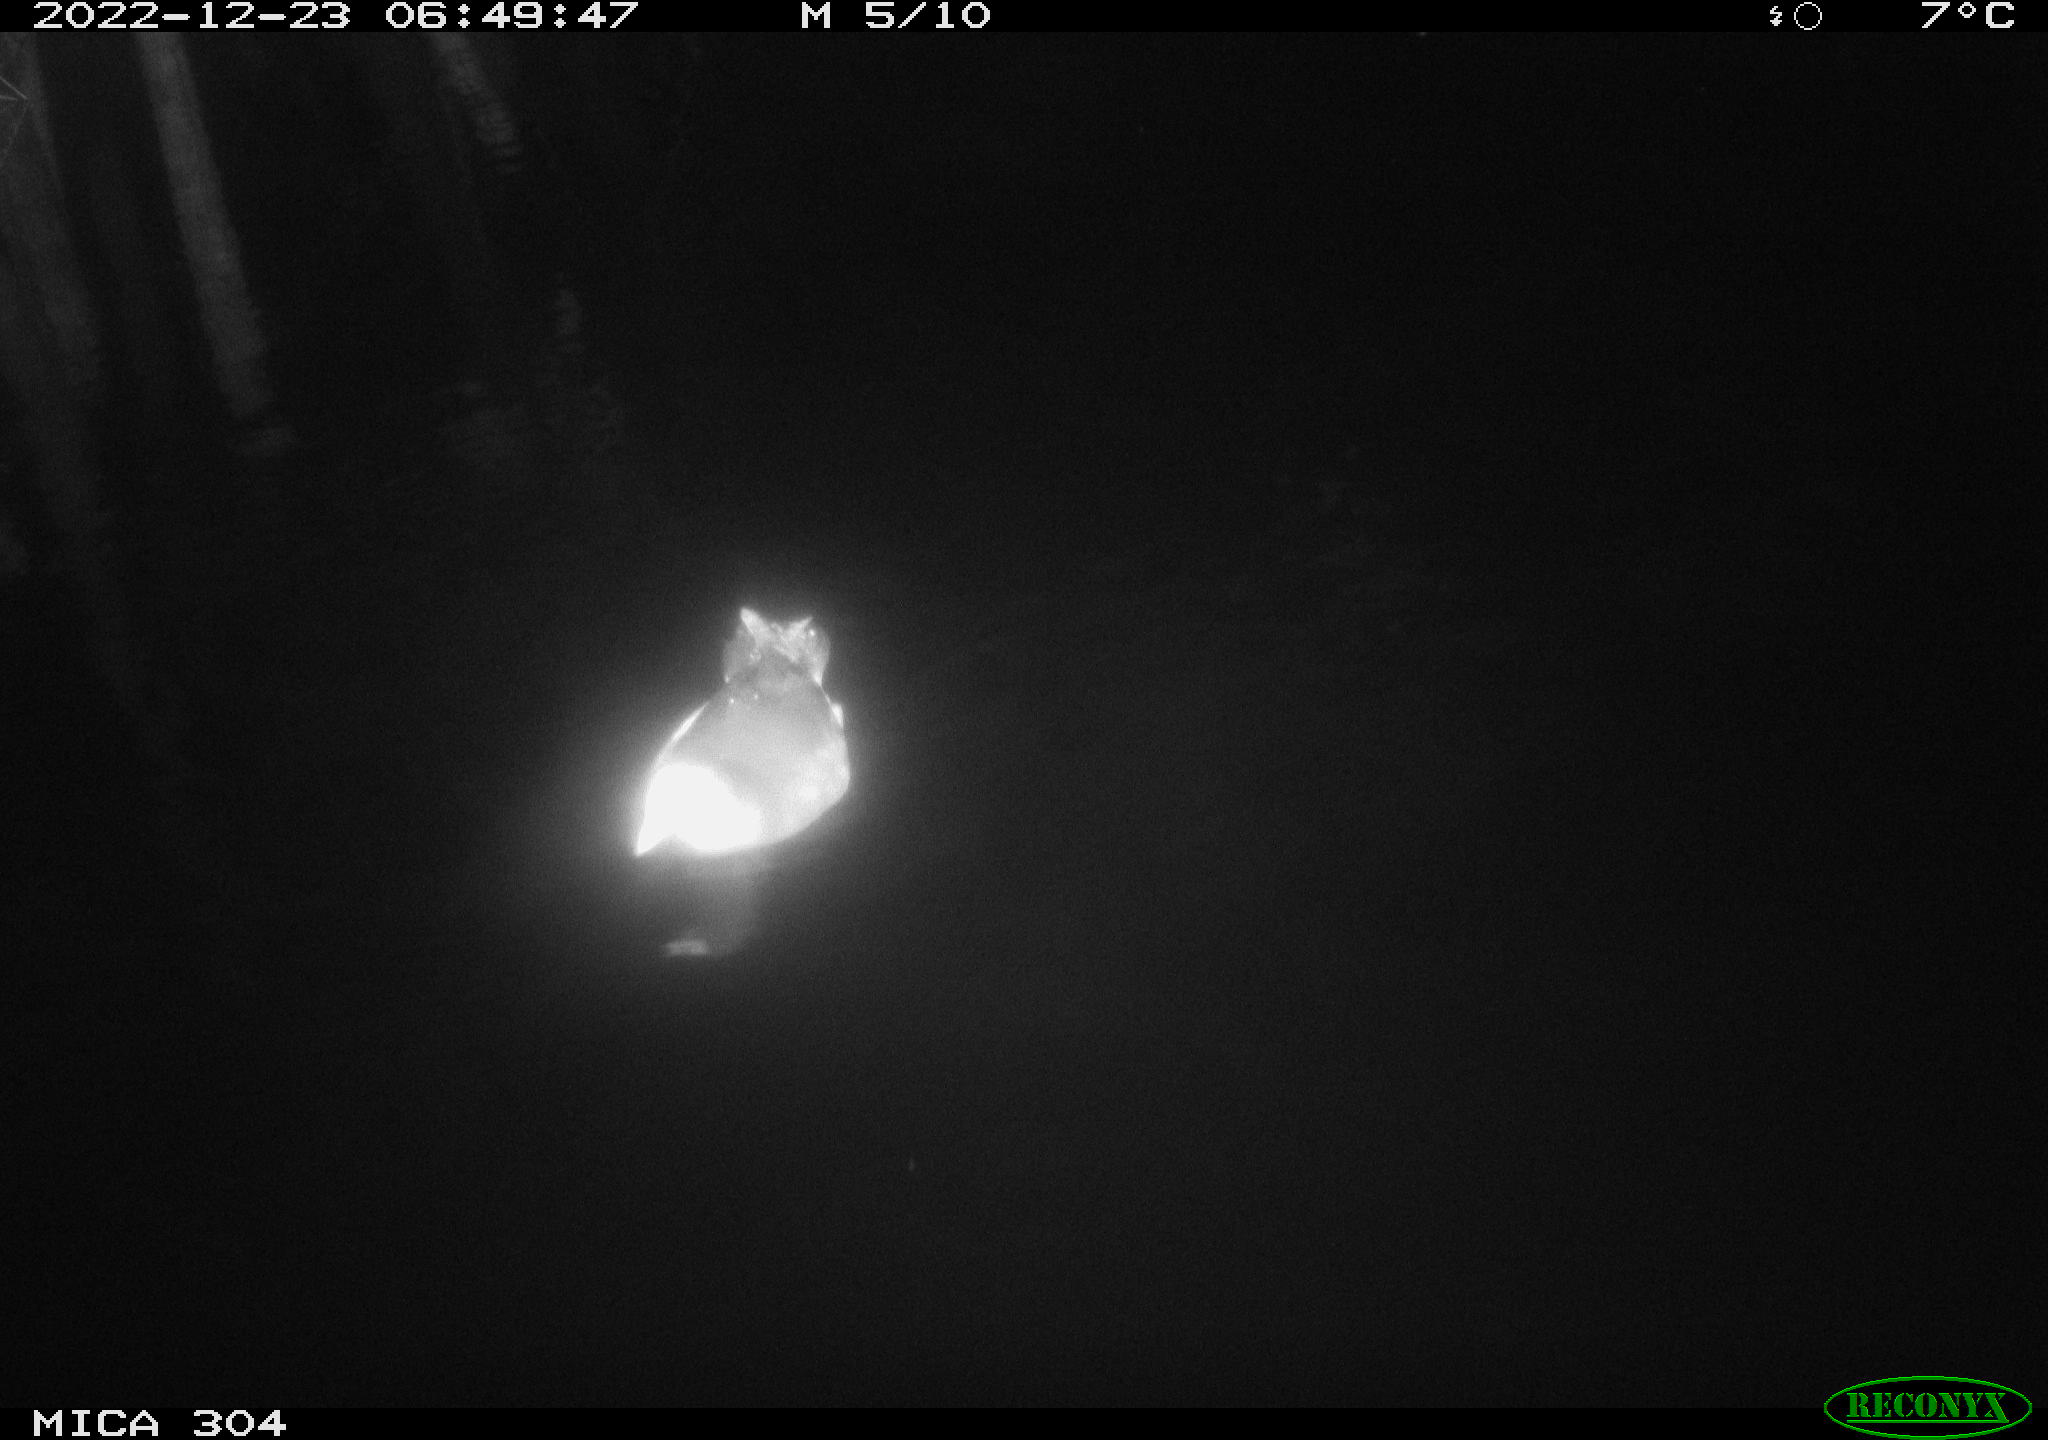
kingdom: Animalia
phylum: Chordata
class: Aves
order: Gruiformes
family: Rallidae
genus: Gallinula
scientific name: Gallinula chloropus
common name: Common moorhen
